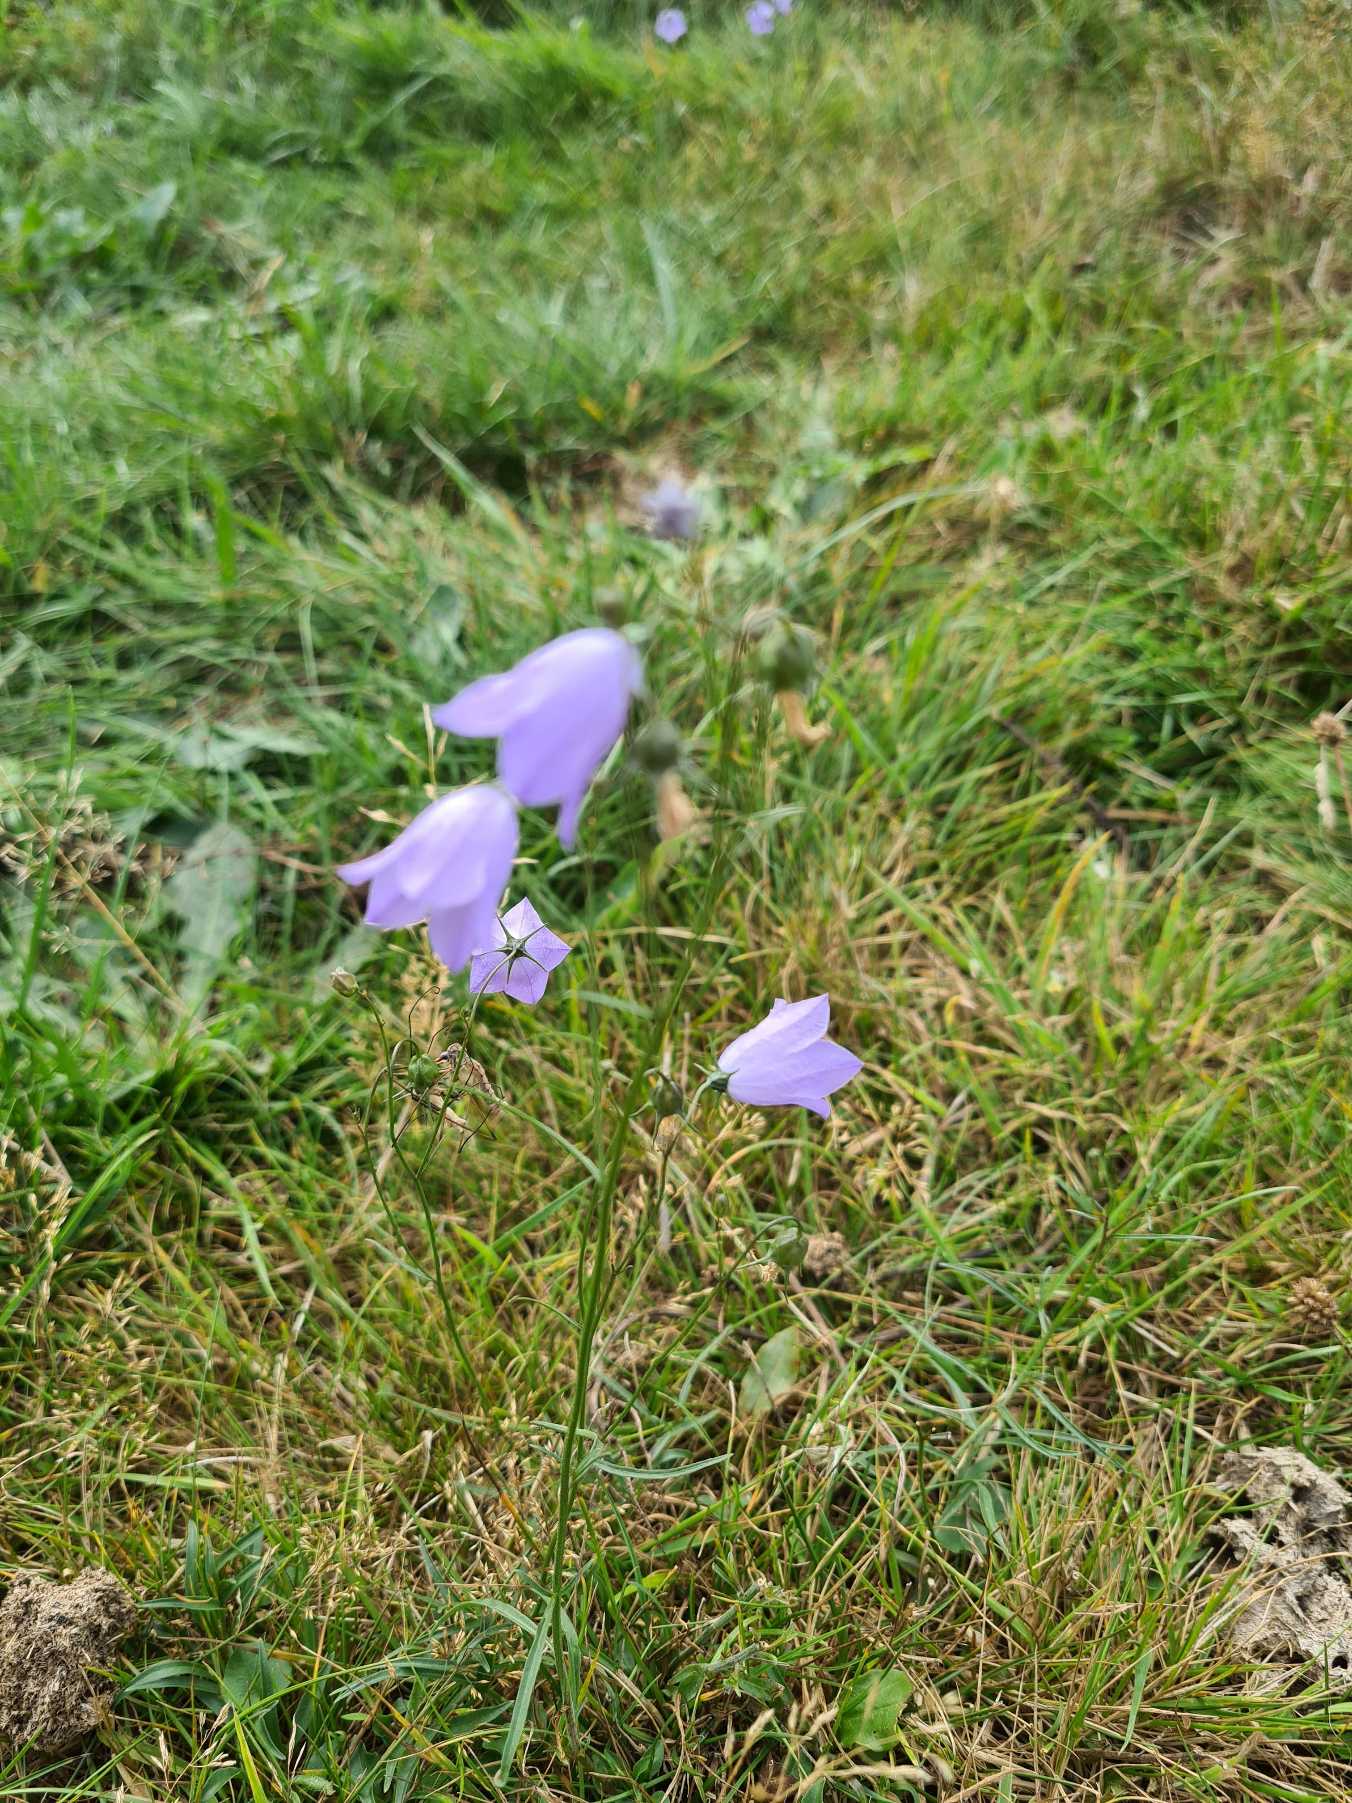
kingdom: Plantae
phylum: Tracheophyta
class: Magnoliopsida
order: Asterales
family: Campanulaceae
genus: Campanula
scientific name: Campanula rotundifolia
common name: Liden klokke
